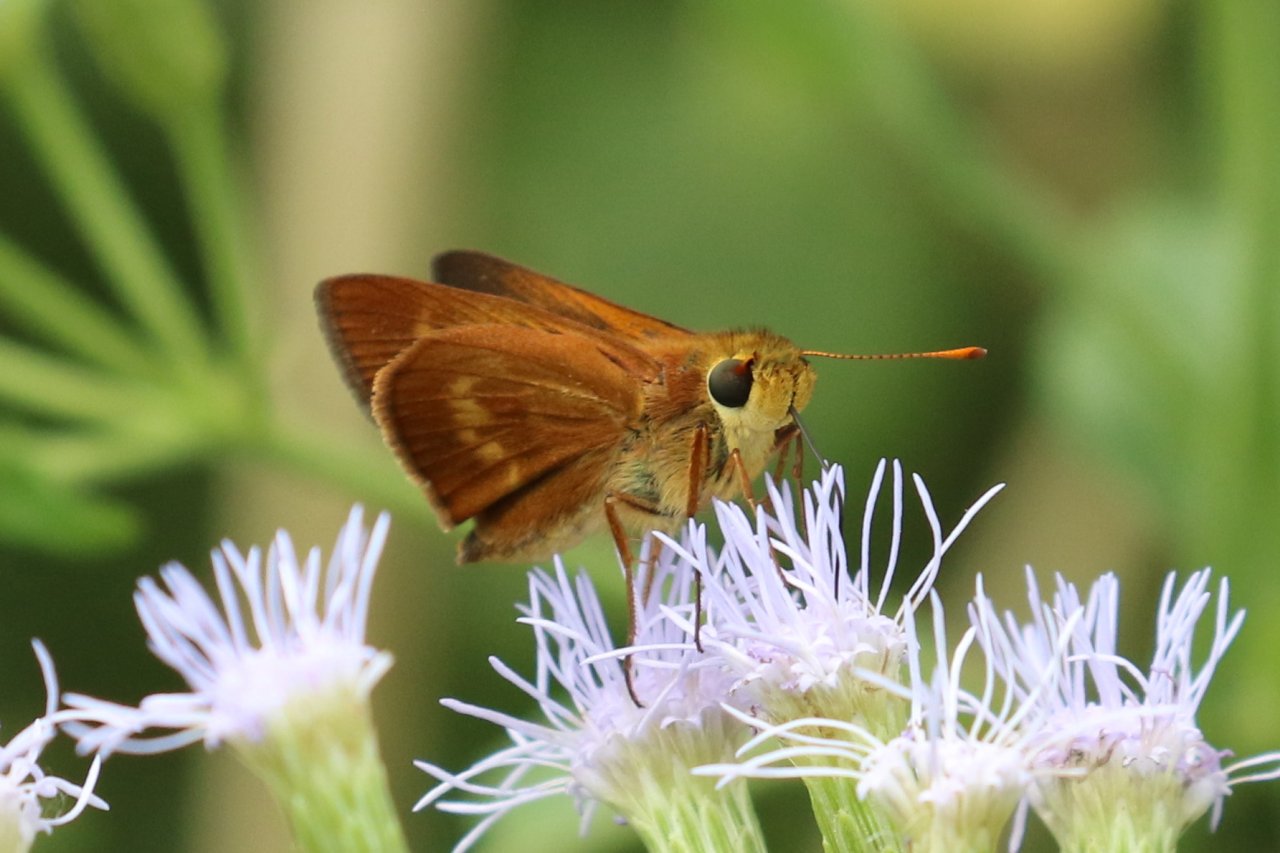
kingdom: Animalia
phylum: Arthropoda
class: Insecta
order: Lepidoptera
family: Hesperiidae
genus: Wallengrenia
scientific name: Wallengrenia otho
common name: Southern Broken-Dash
